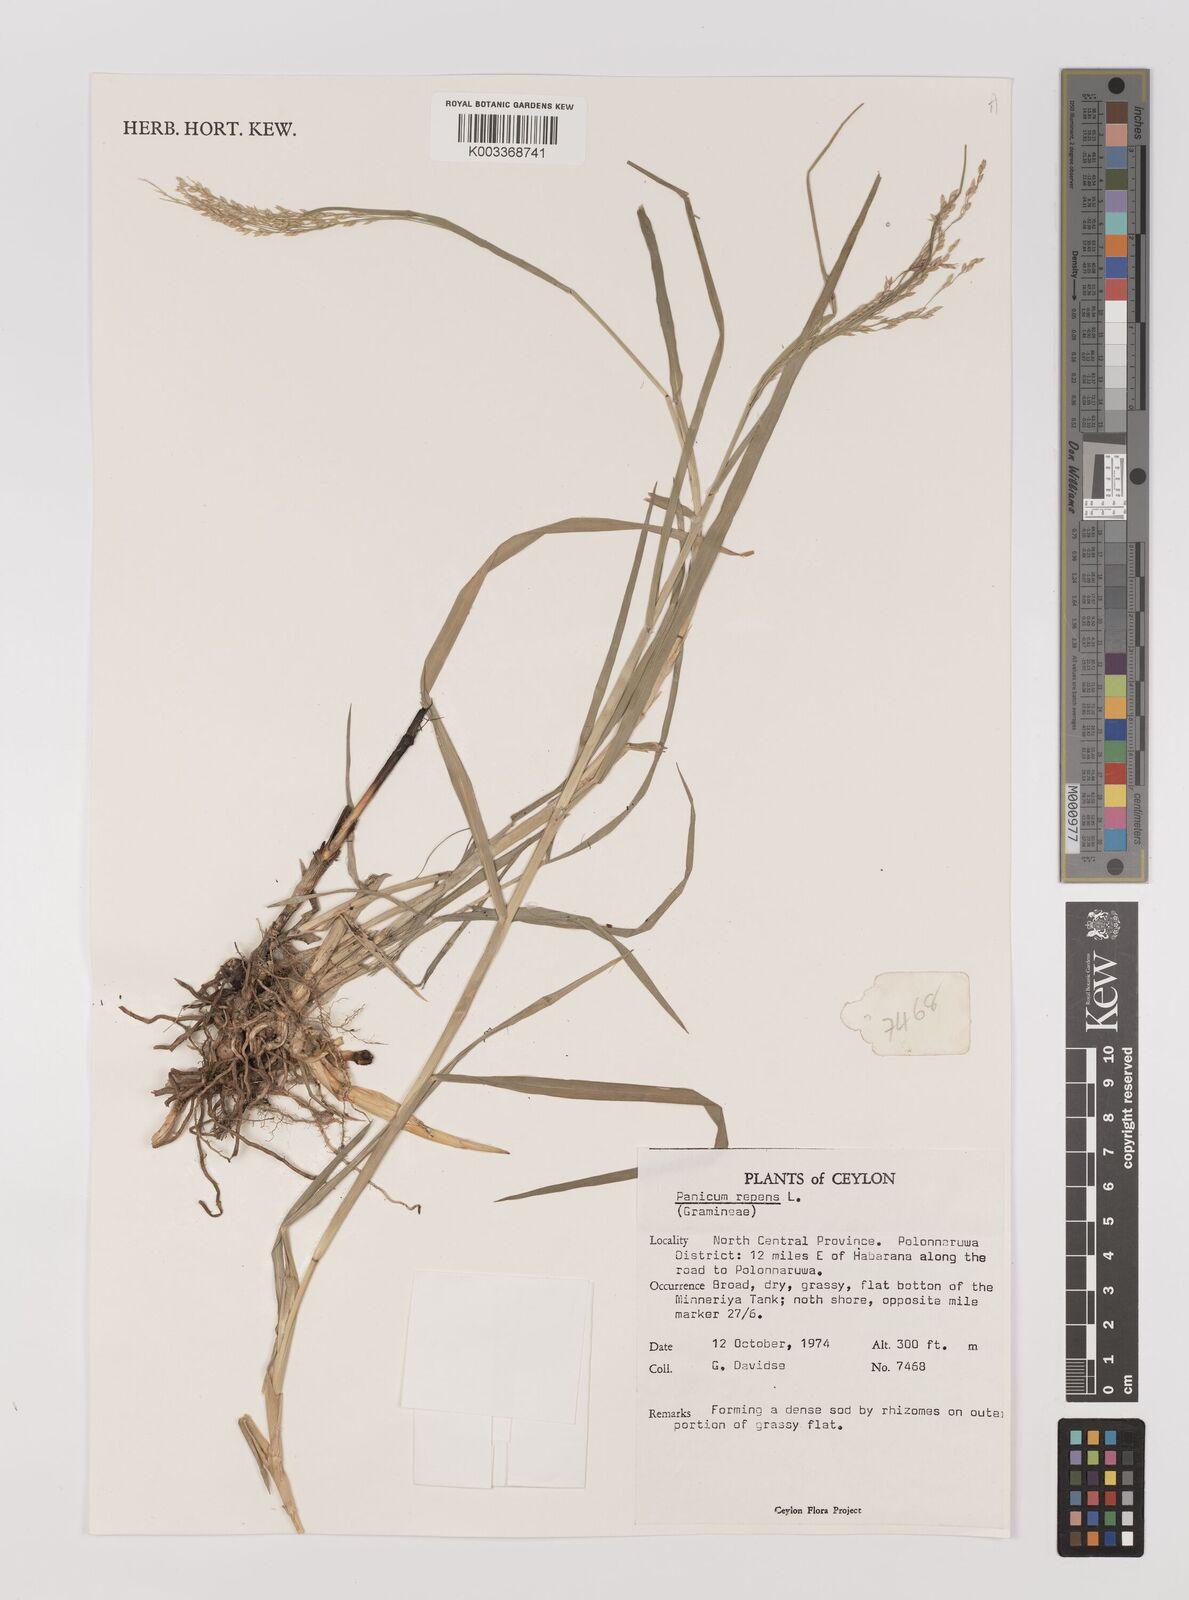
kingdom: Plantae
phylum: Tracheophyta
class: Liliopsida
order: Poales
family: Poaceae
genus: Panicum
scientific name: Panicum repens
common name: Torpedo grass
